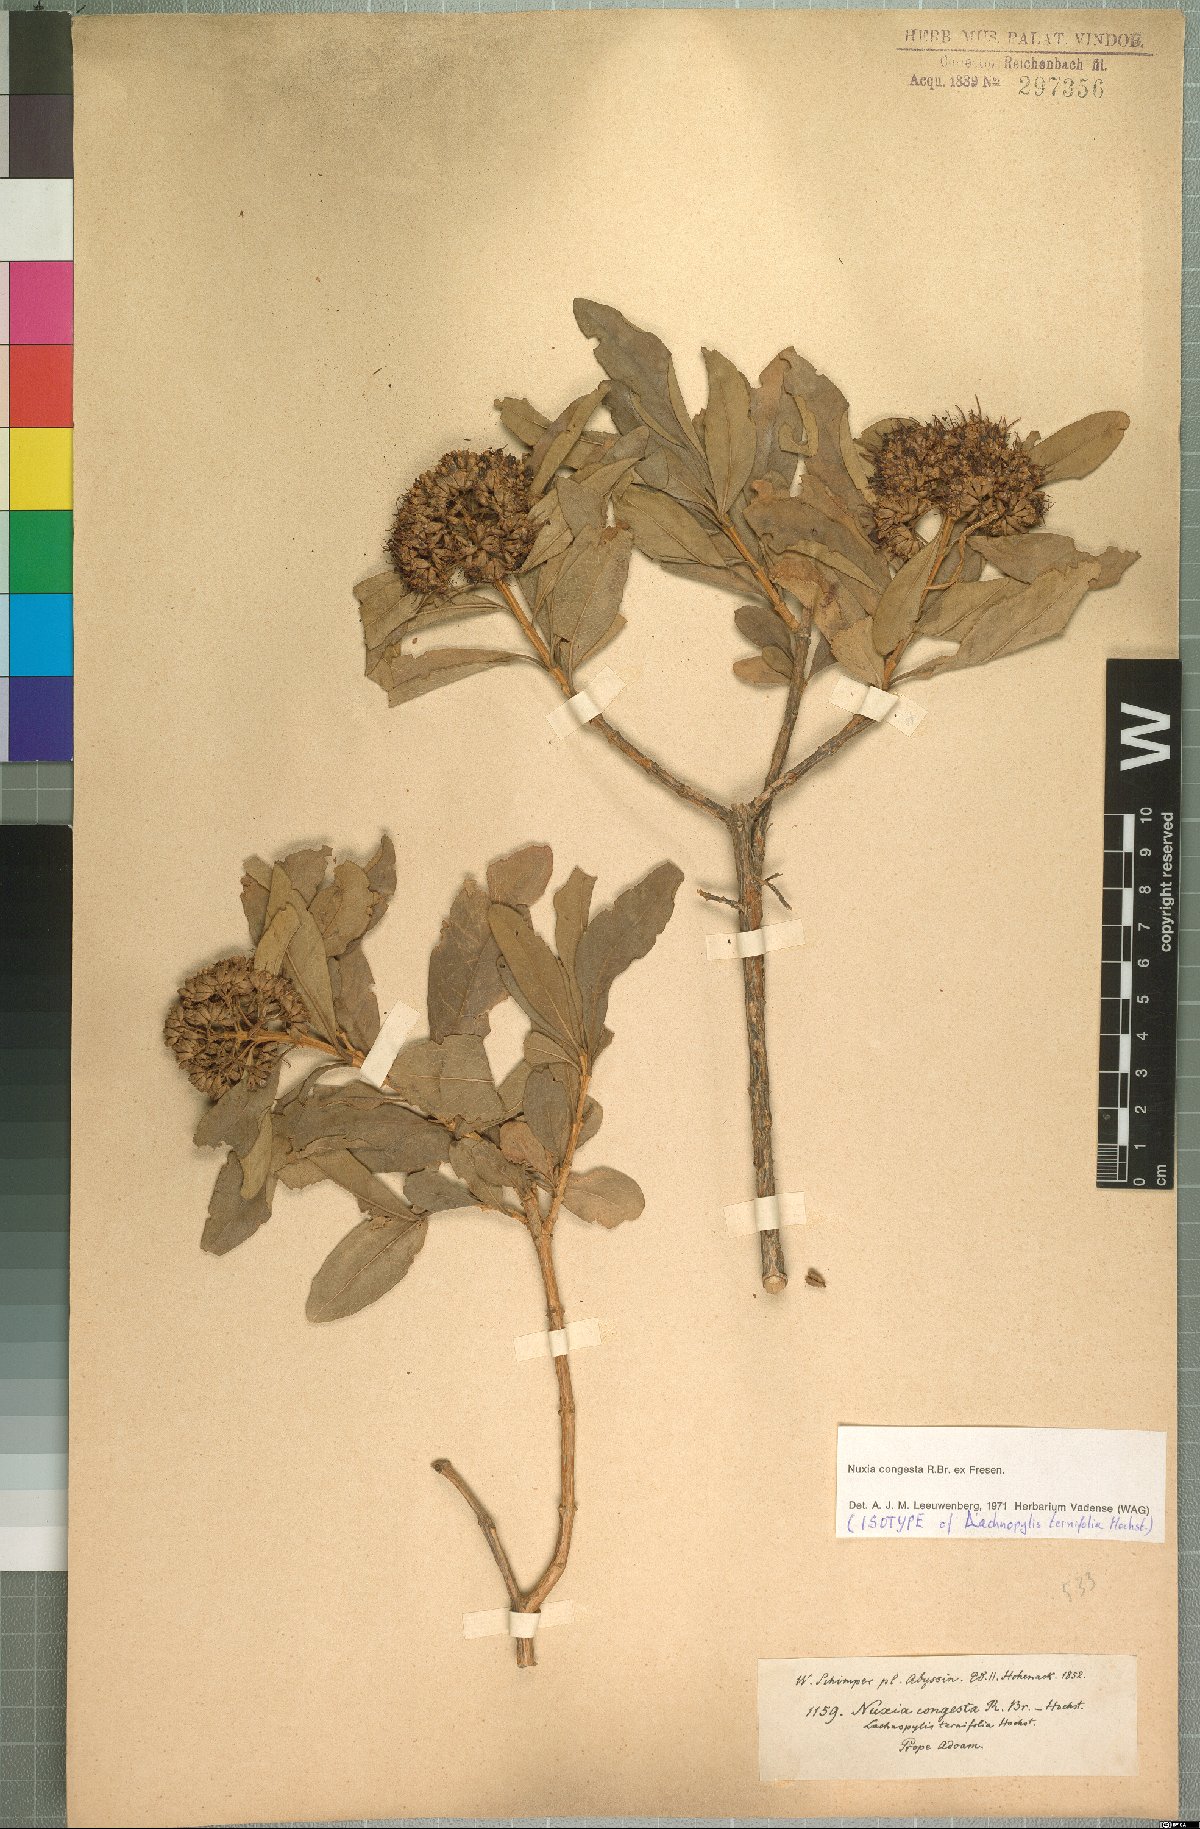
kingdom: Plantae
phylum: Tracheophyta
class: Magnoliopsida
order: Lamiales
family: Stilbaceae
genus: Nuxia
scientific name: Nuxia congesta
